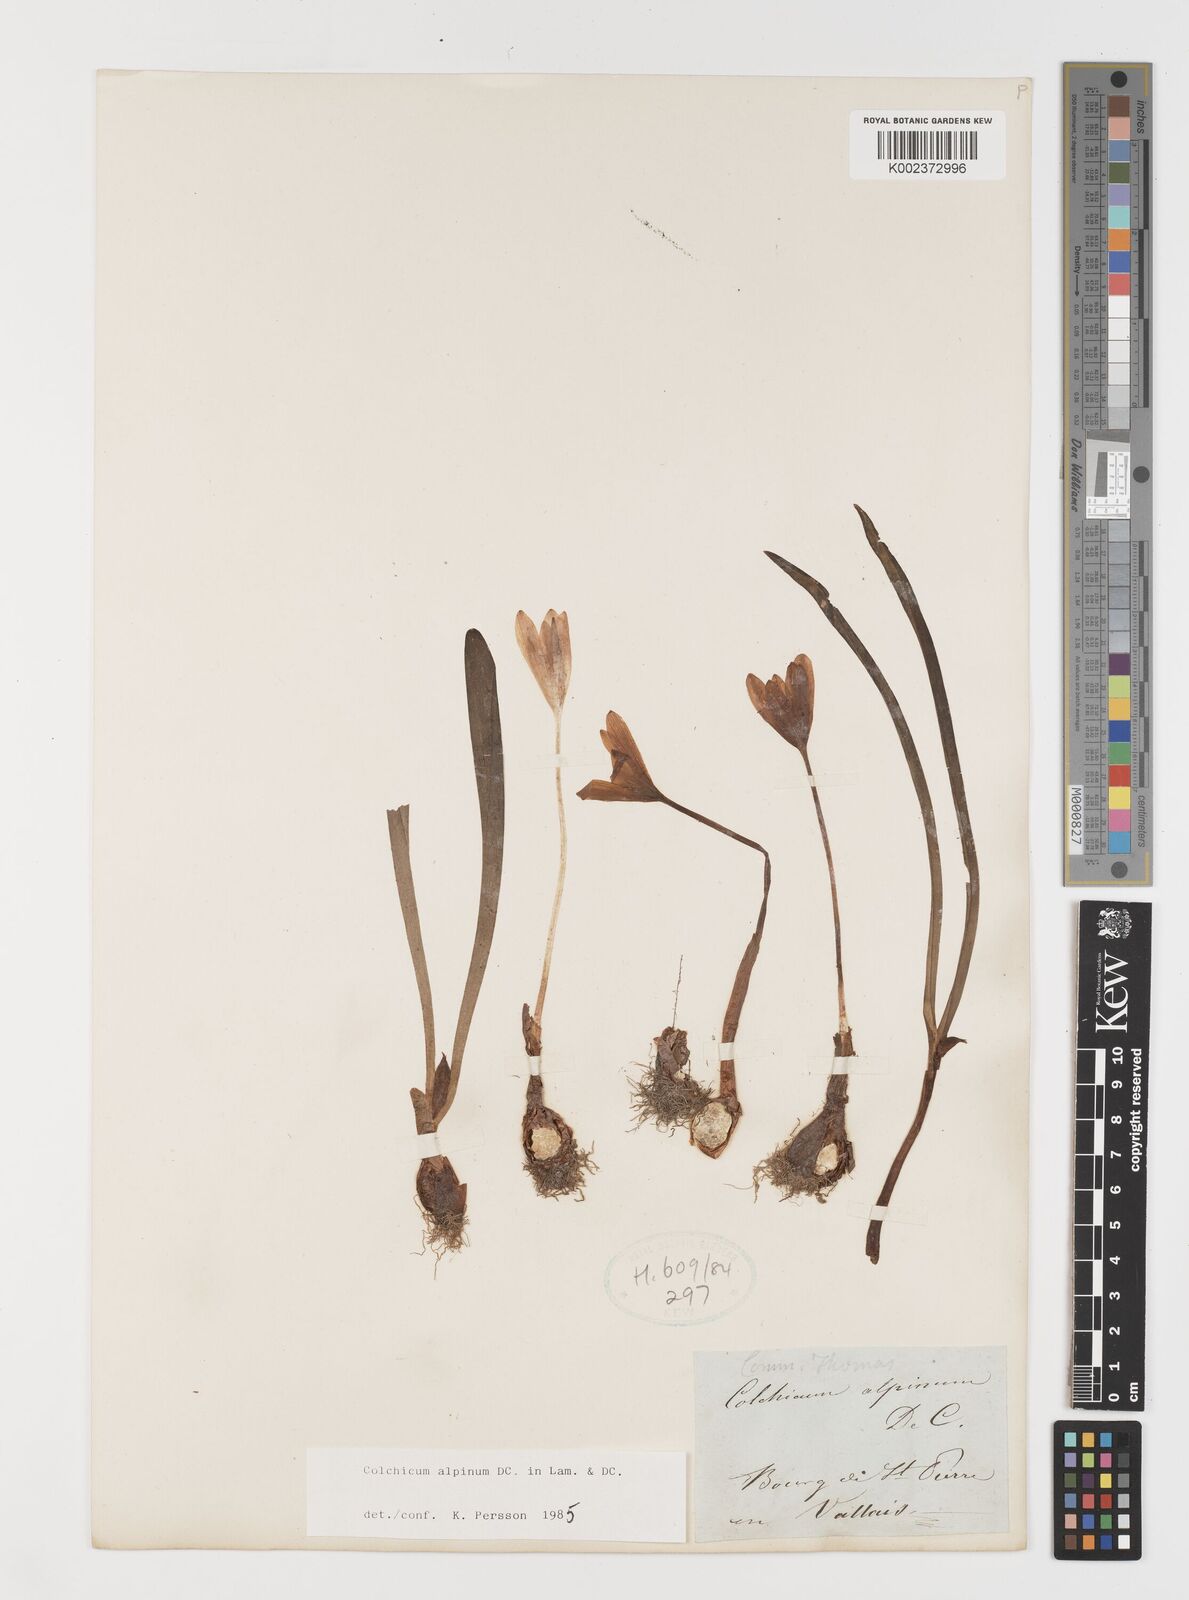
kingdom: Plantae
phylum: Tracheophyta
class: Liliopsida
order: Liliales
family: Colchicaceae
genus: Colchicum
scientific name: Colchicum alpinum
